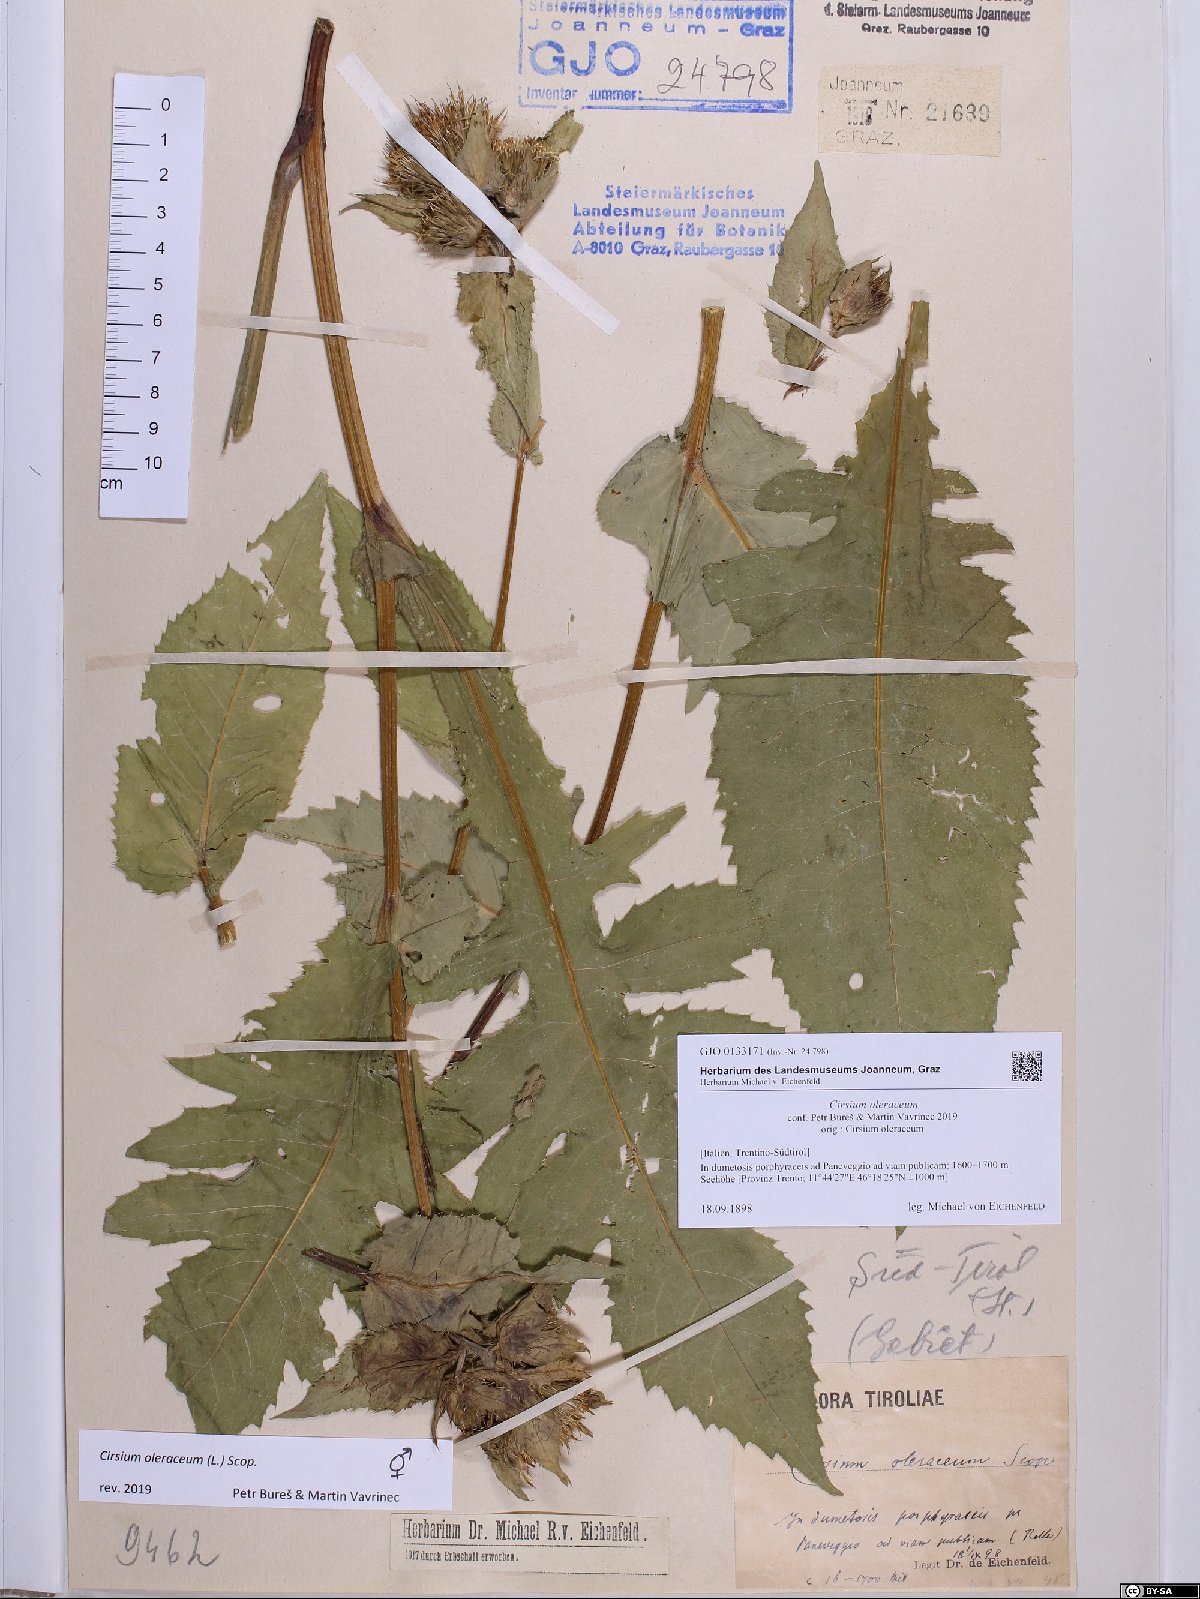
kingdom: Plantae
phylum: Tracheophyta
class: Magnoliopsida
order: Asterales
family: Asteraceae
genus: Cirsium
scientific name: Cirsium oleraceum
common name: Cabbage thistle
